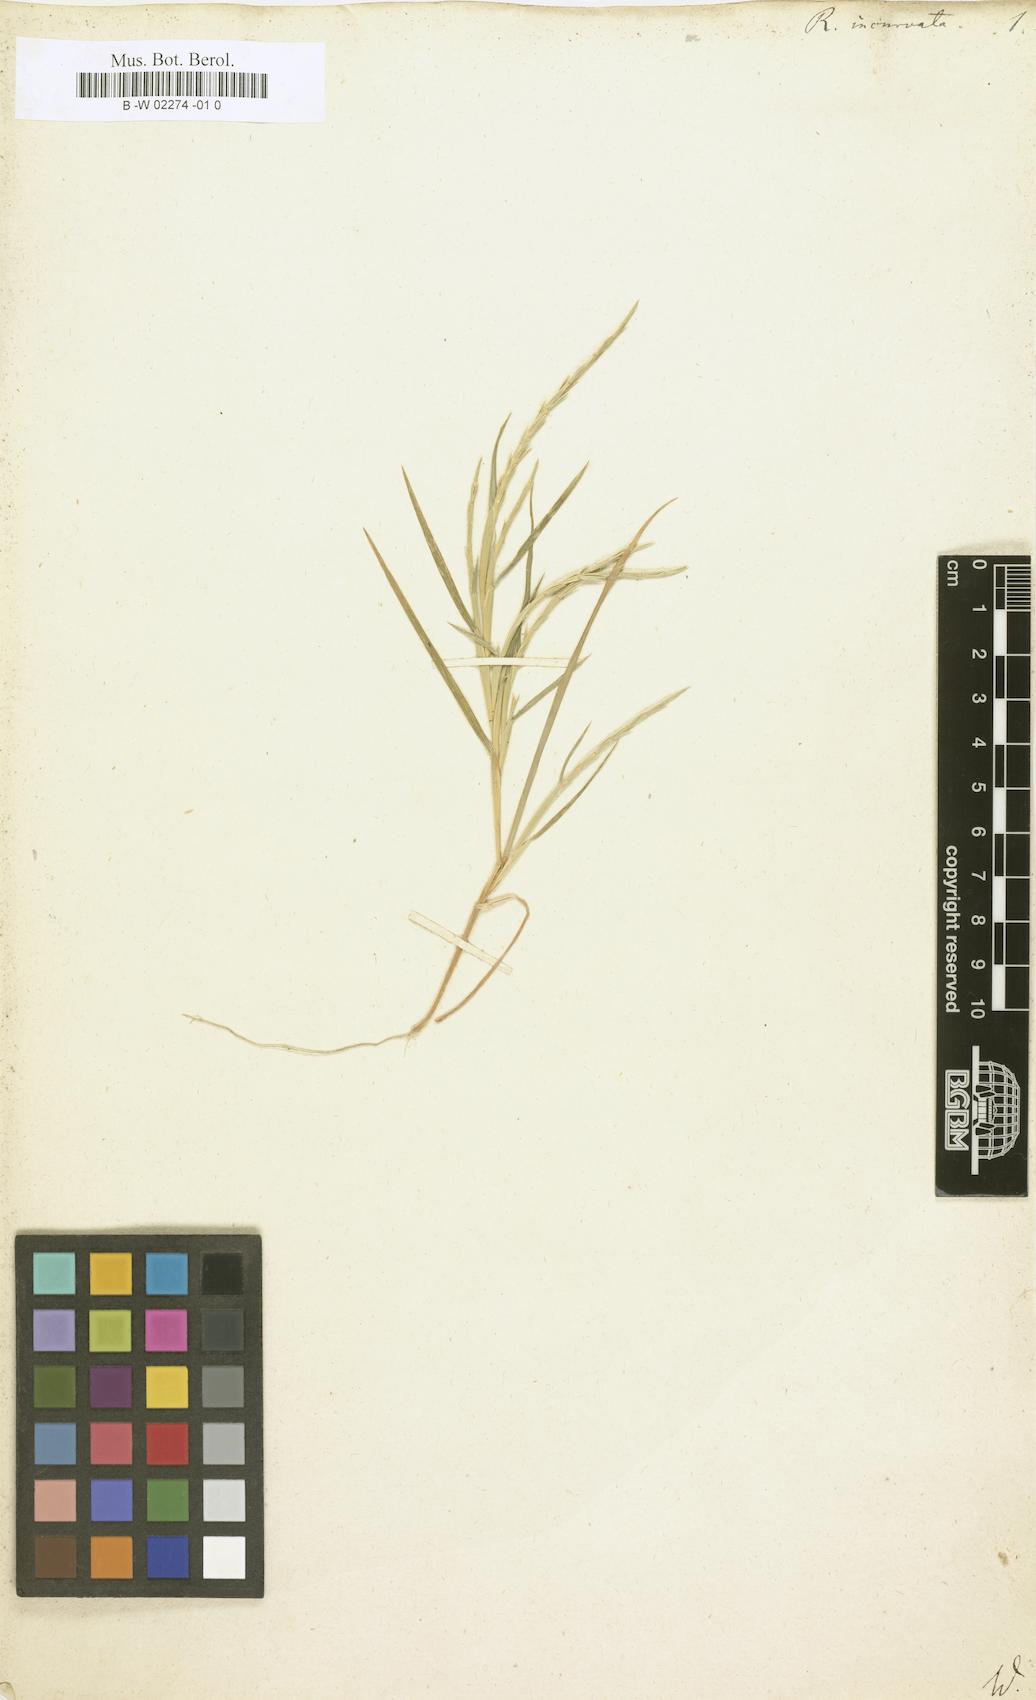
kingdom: Plantae
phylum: Tracheophyta
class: Liliopsida
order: Poales
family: Poaceae
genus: Rottboellia
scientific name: Rottboellia incurvata
